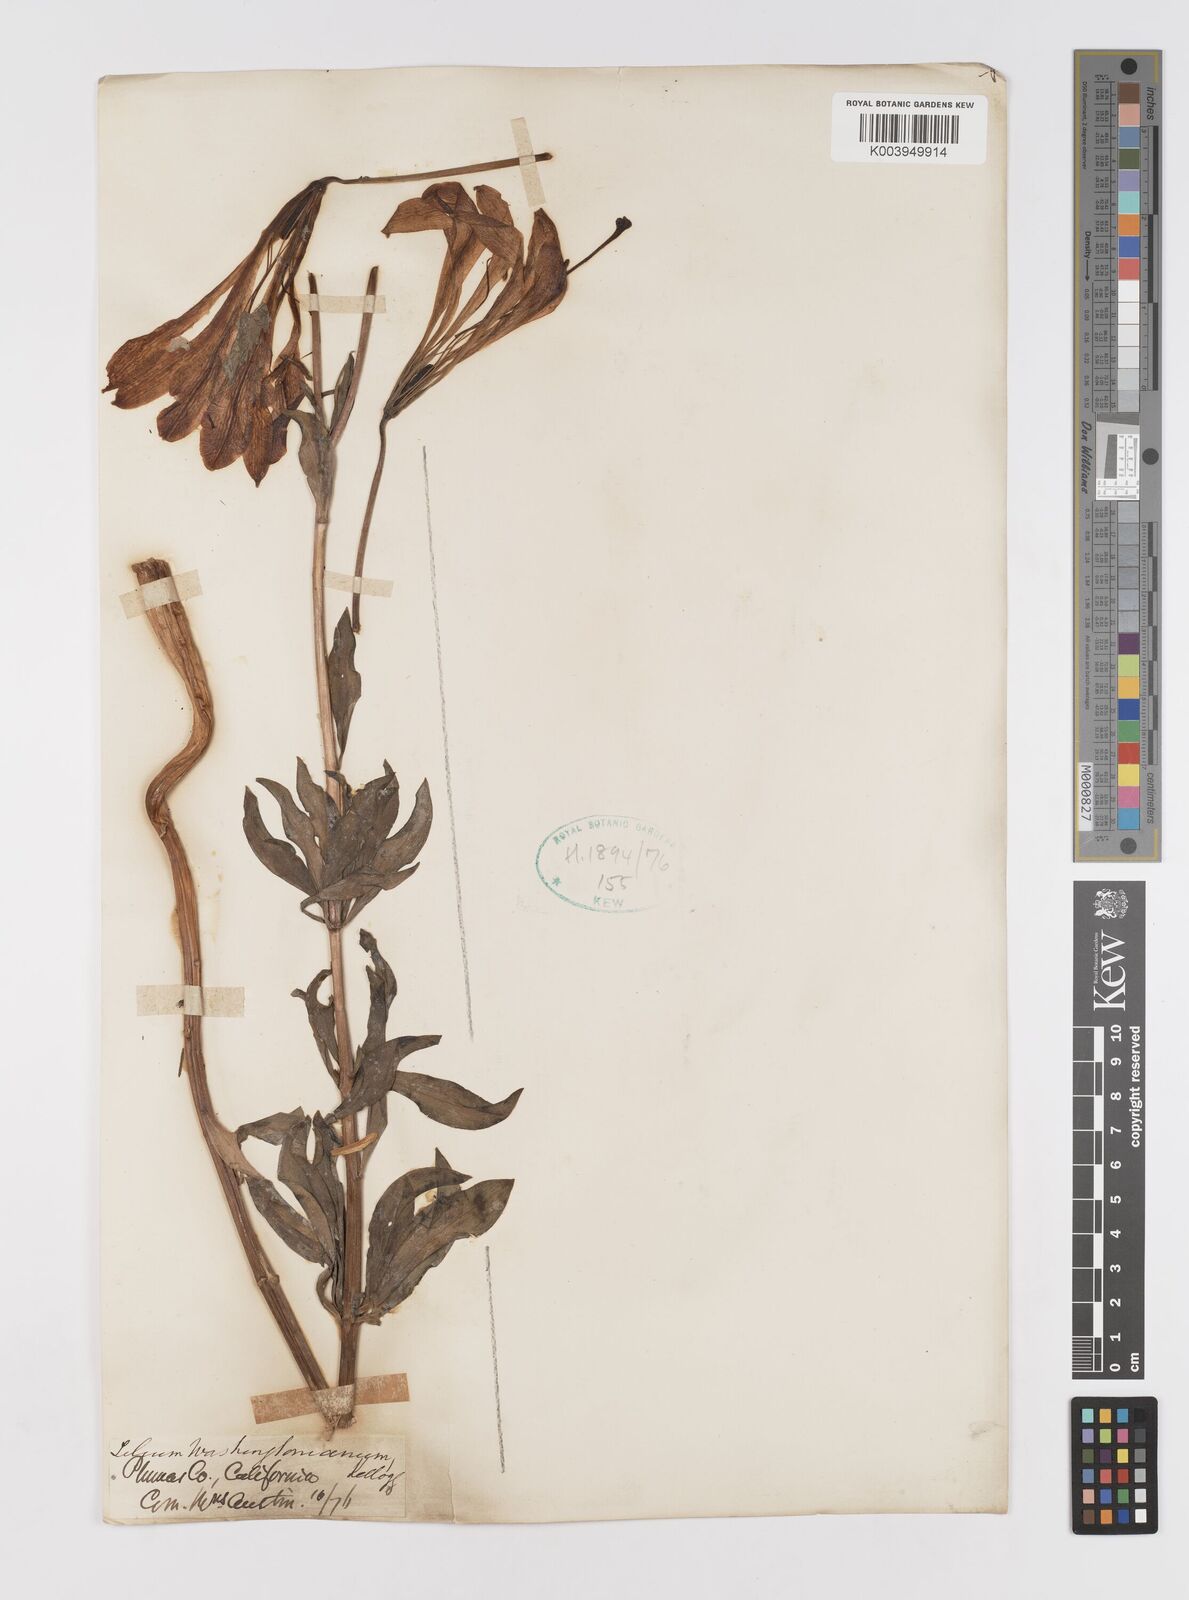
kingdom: Plantae
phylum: Tracheophyta
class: Liliopsida
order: Liliales
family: Liliaceae
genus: Lilium
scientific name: Lilium washingtonianum
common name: Washington lily
